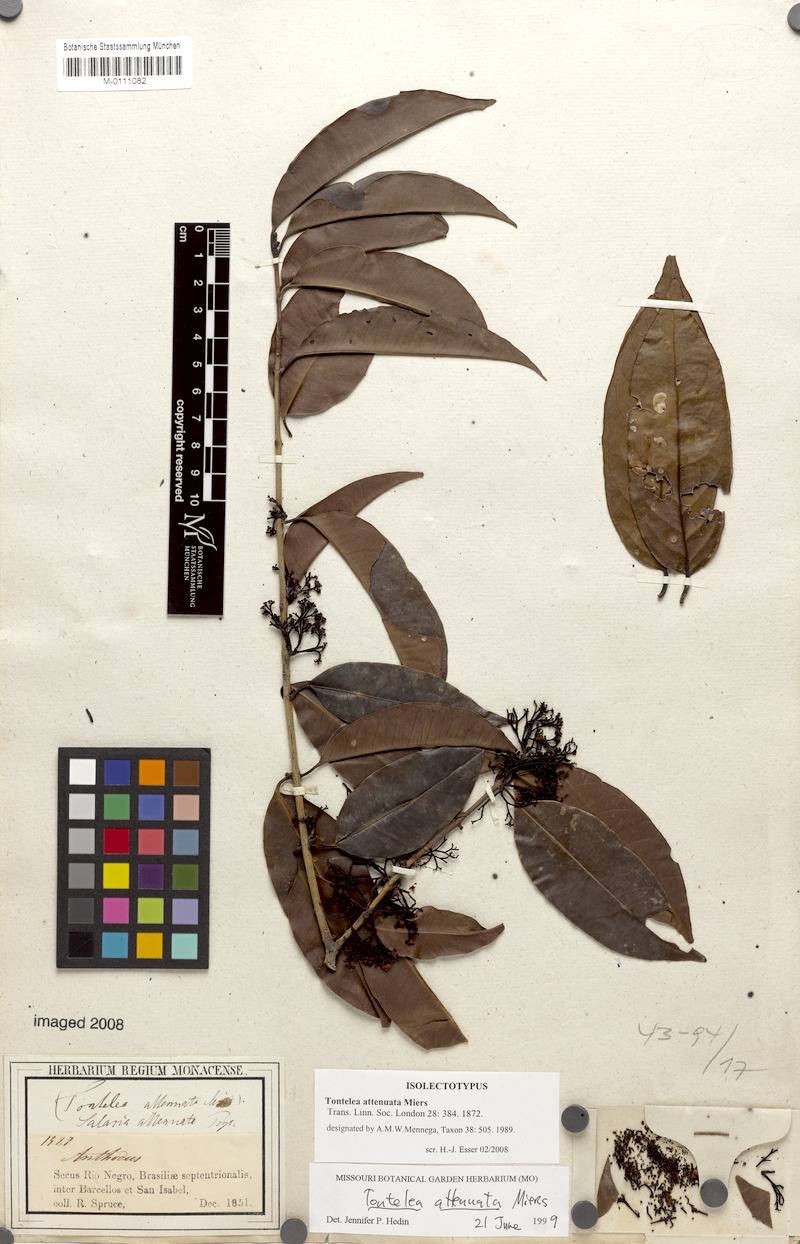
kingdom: Plantae
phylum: Tracheophyta
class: Magnoliopsida
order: Celastrales
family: Celastraceae
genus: Tontelea
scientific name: Tontelea attenuata
